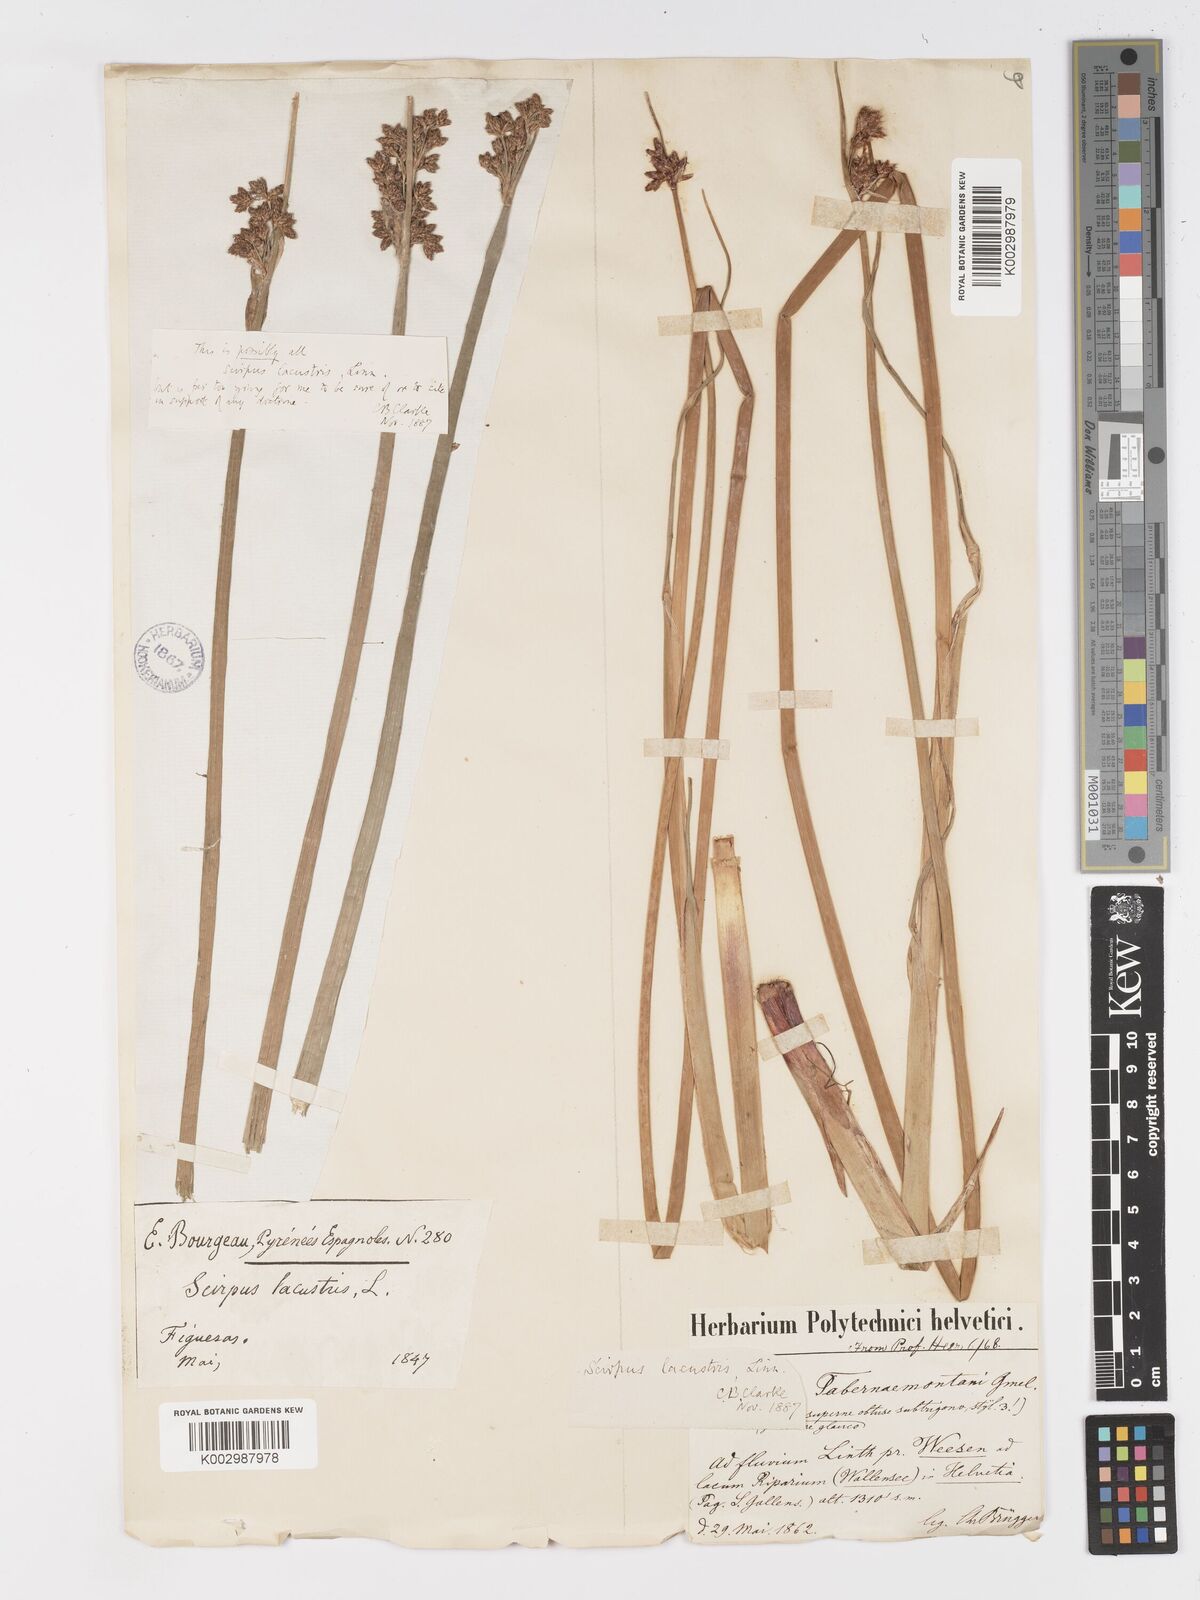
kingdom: Plantae
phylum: Tracheophyta
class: Liliopsida
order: Poales
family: Cyperaceae
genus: Schoenoplectus
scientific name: Schoenoplectus tabernaemontani
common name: Grey club-rush
